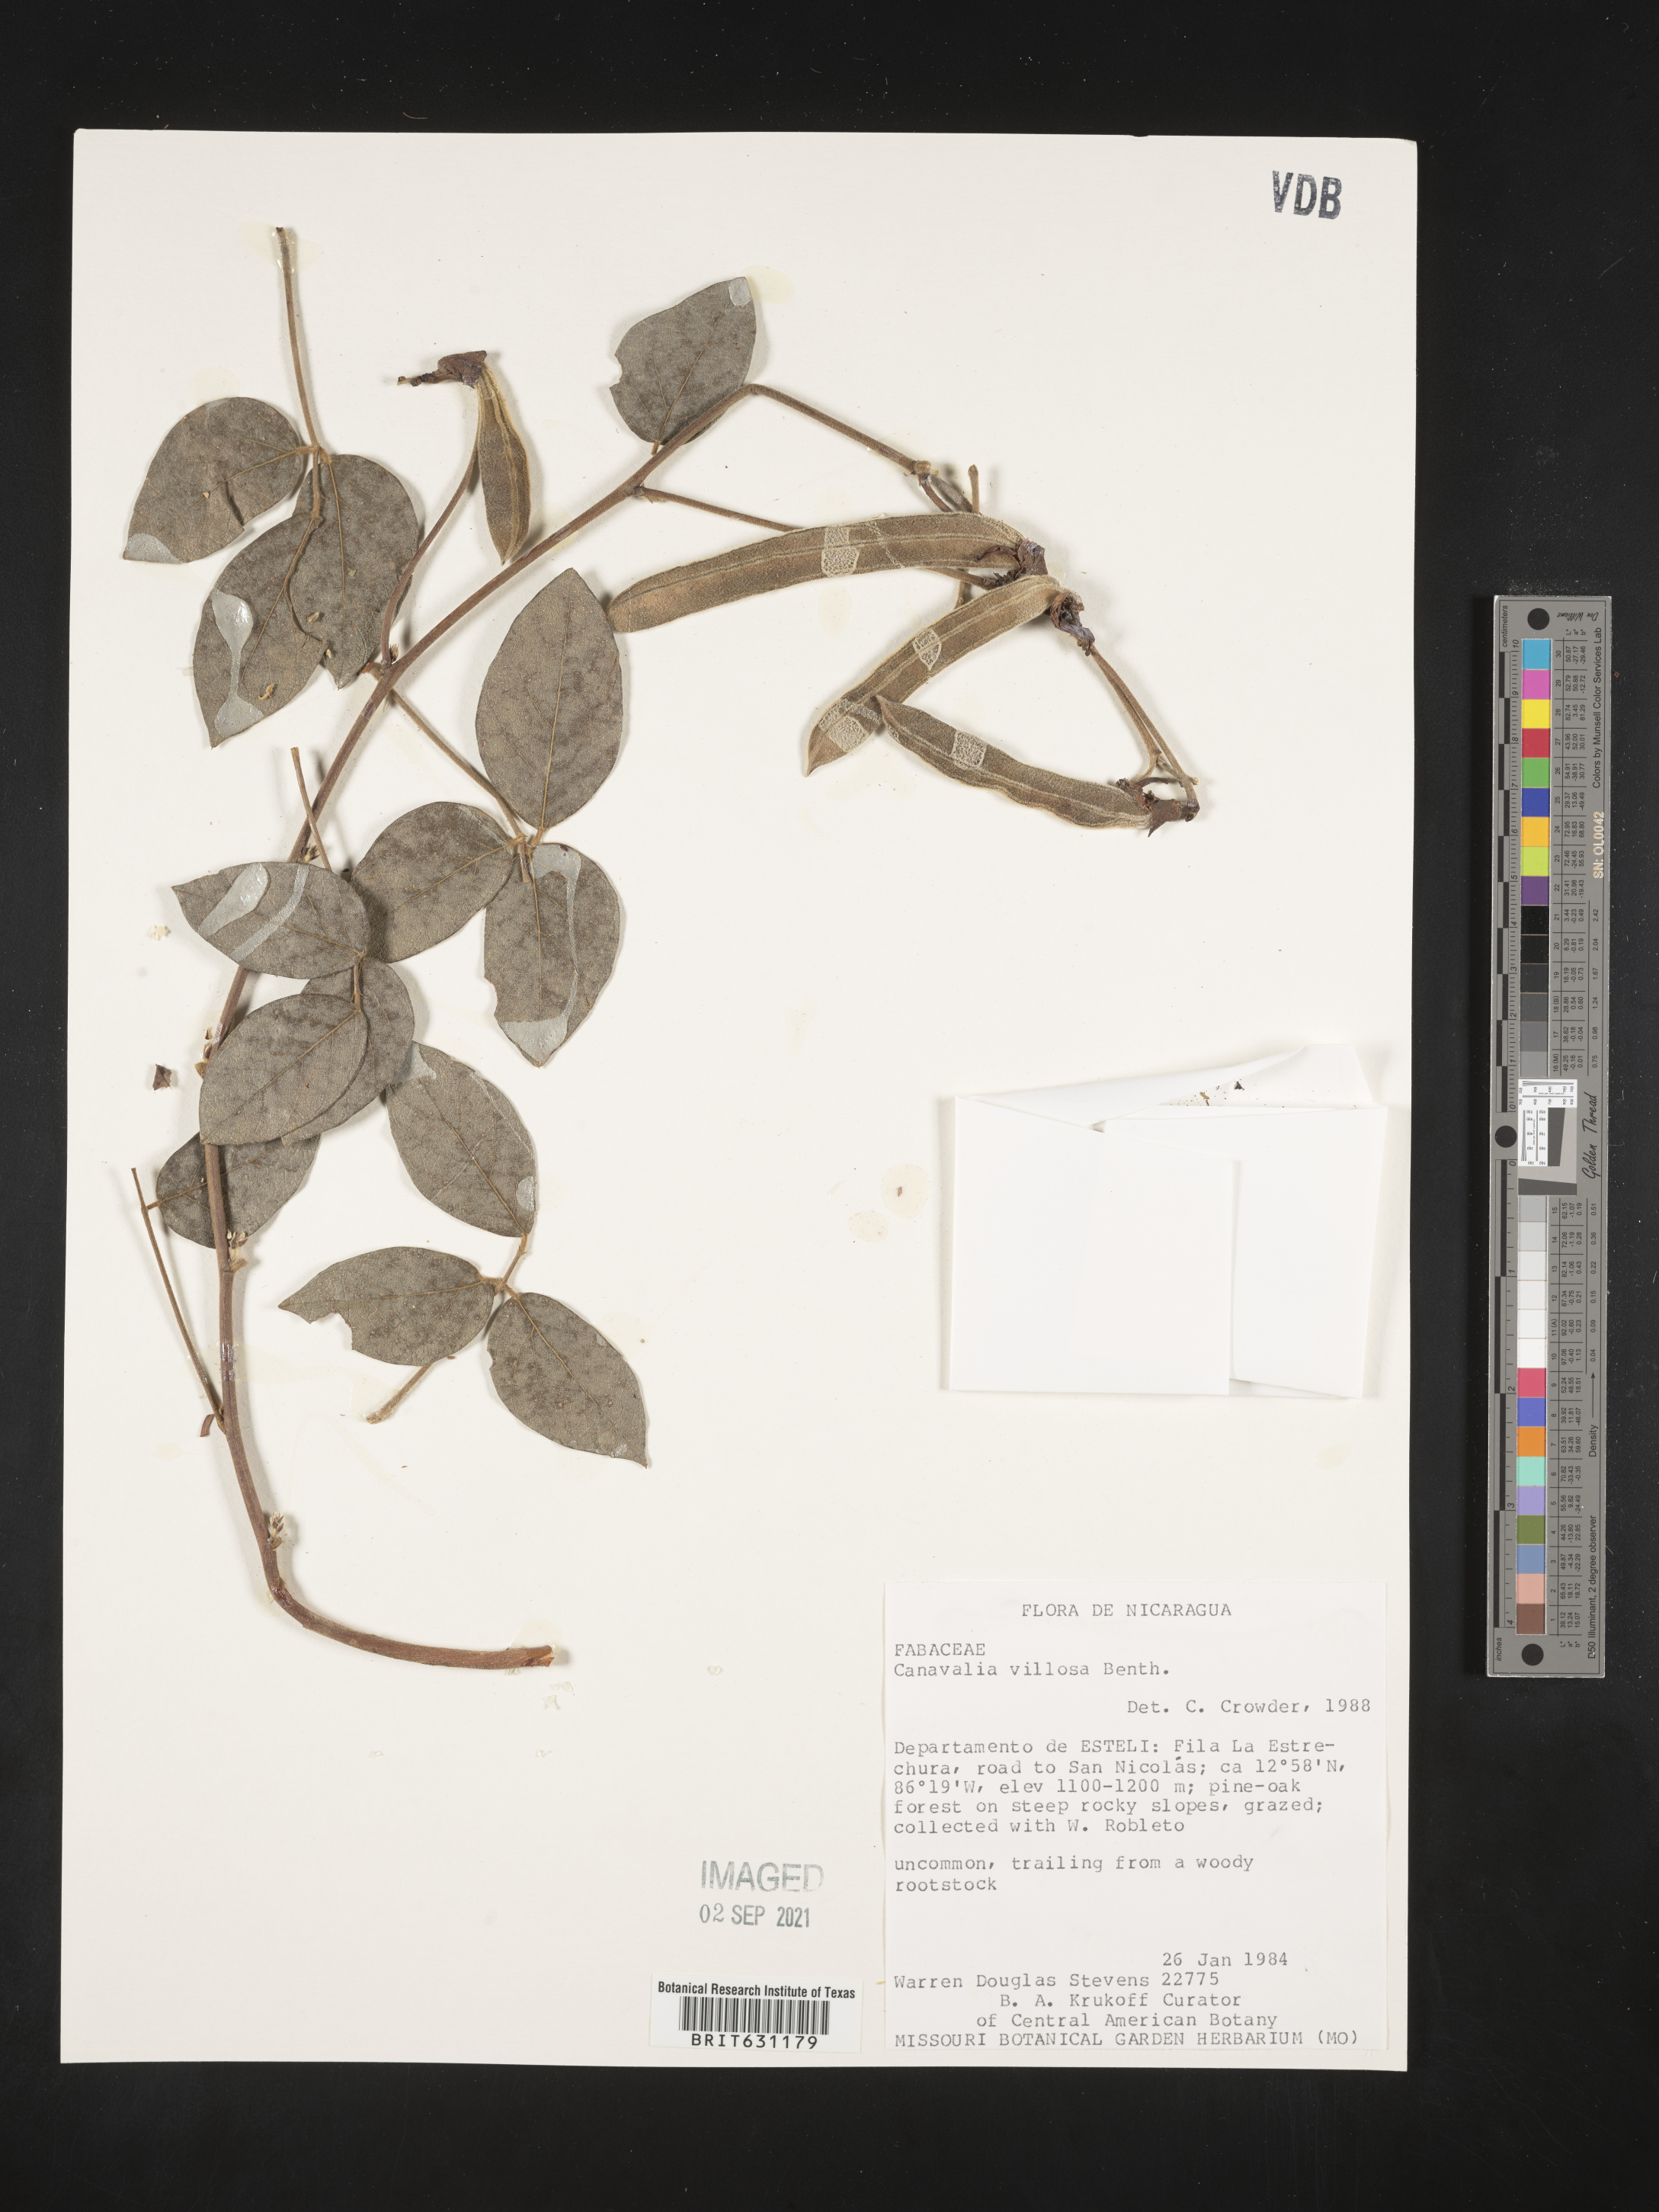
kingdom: Plantae
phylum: Tracheophyta
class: Magnoliopsida
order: Fabales
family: Fabaceae
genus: Canavalia
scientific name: Canavalia villosa
